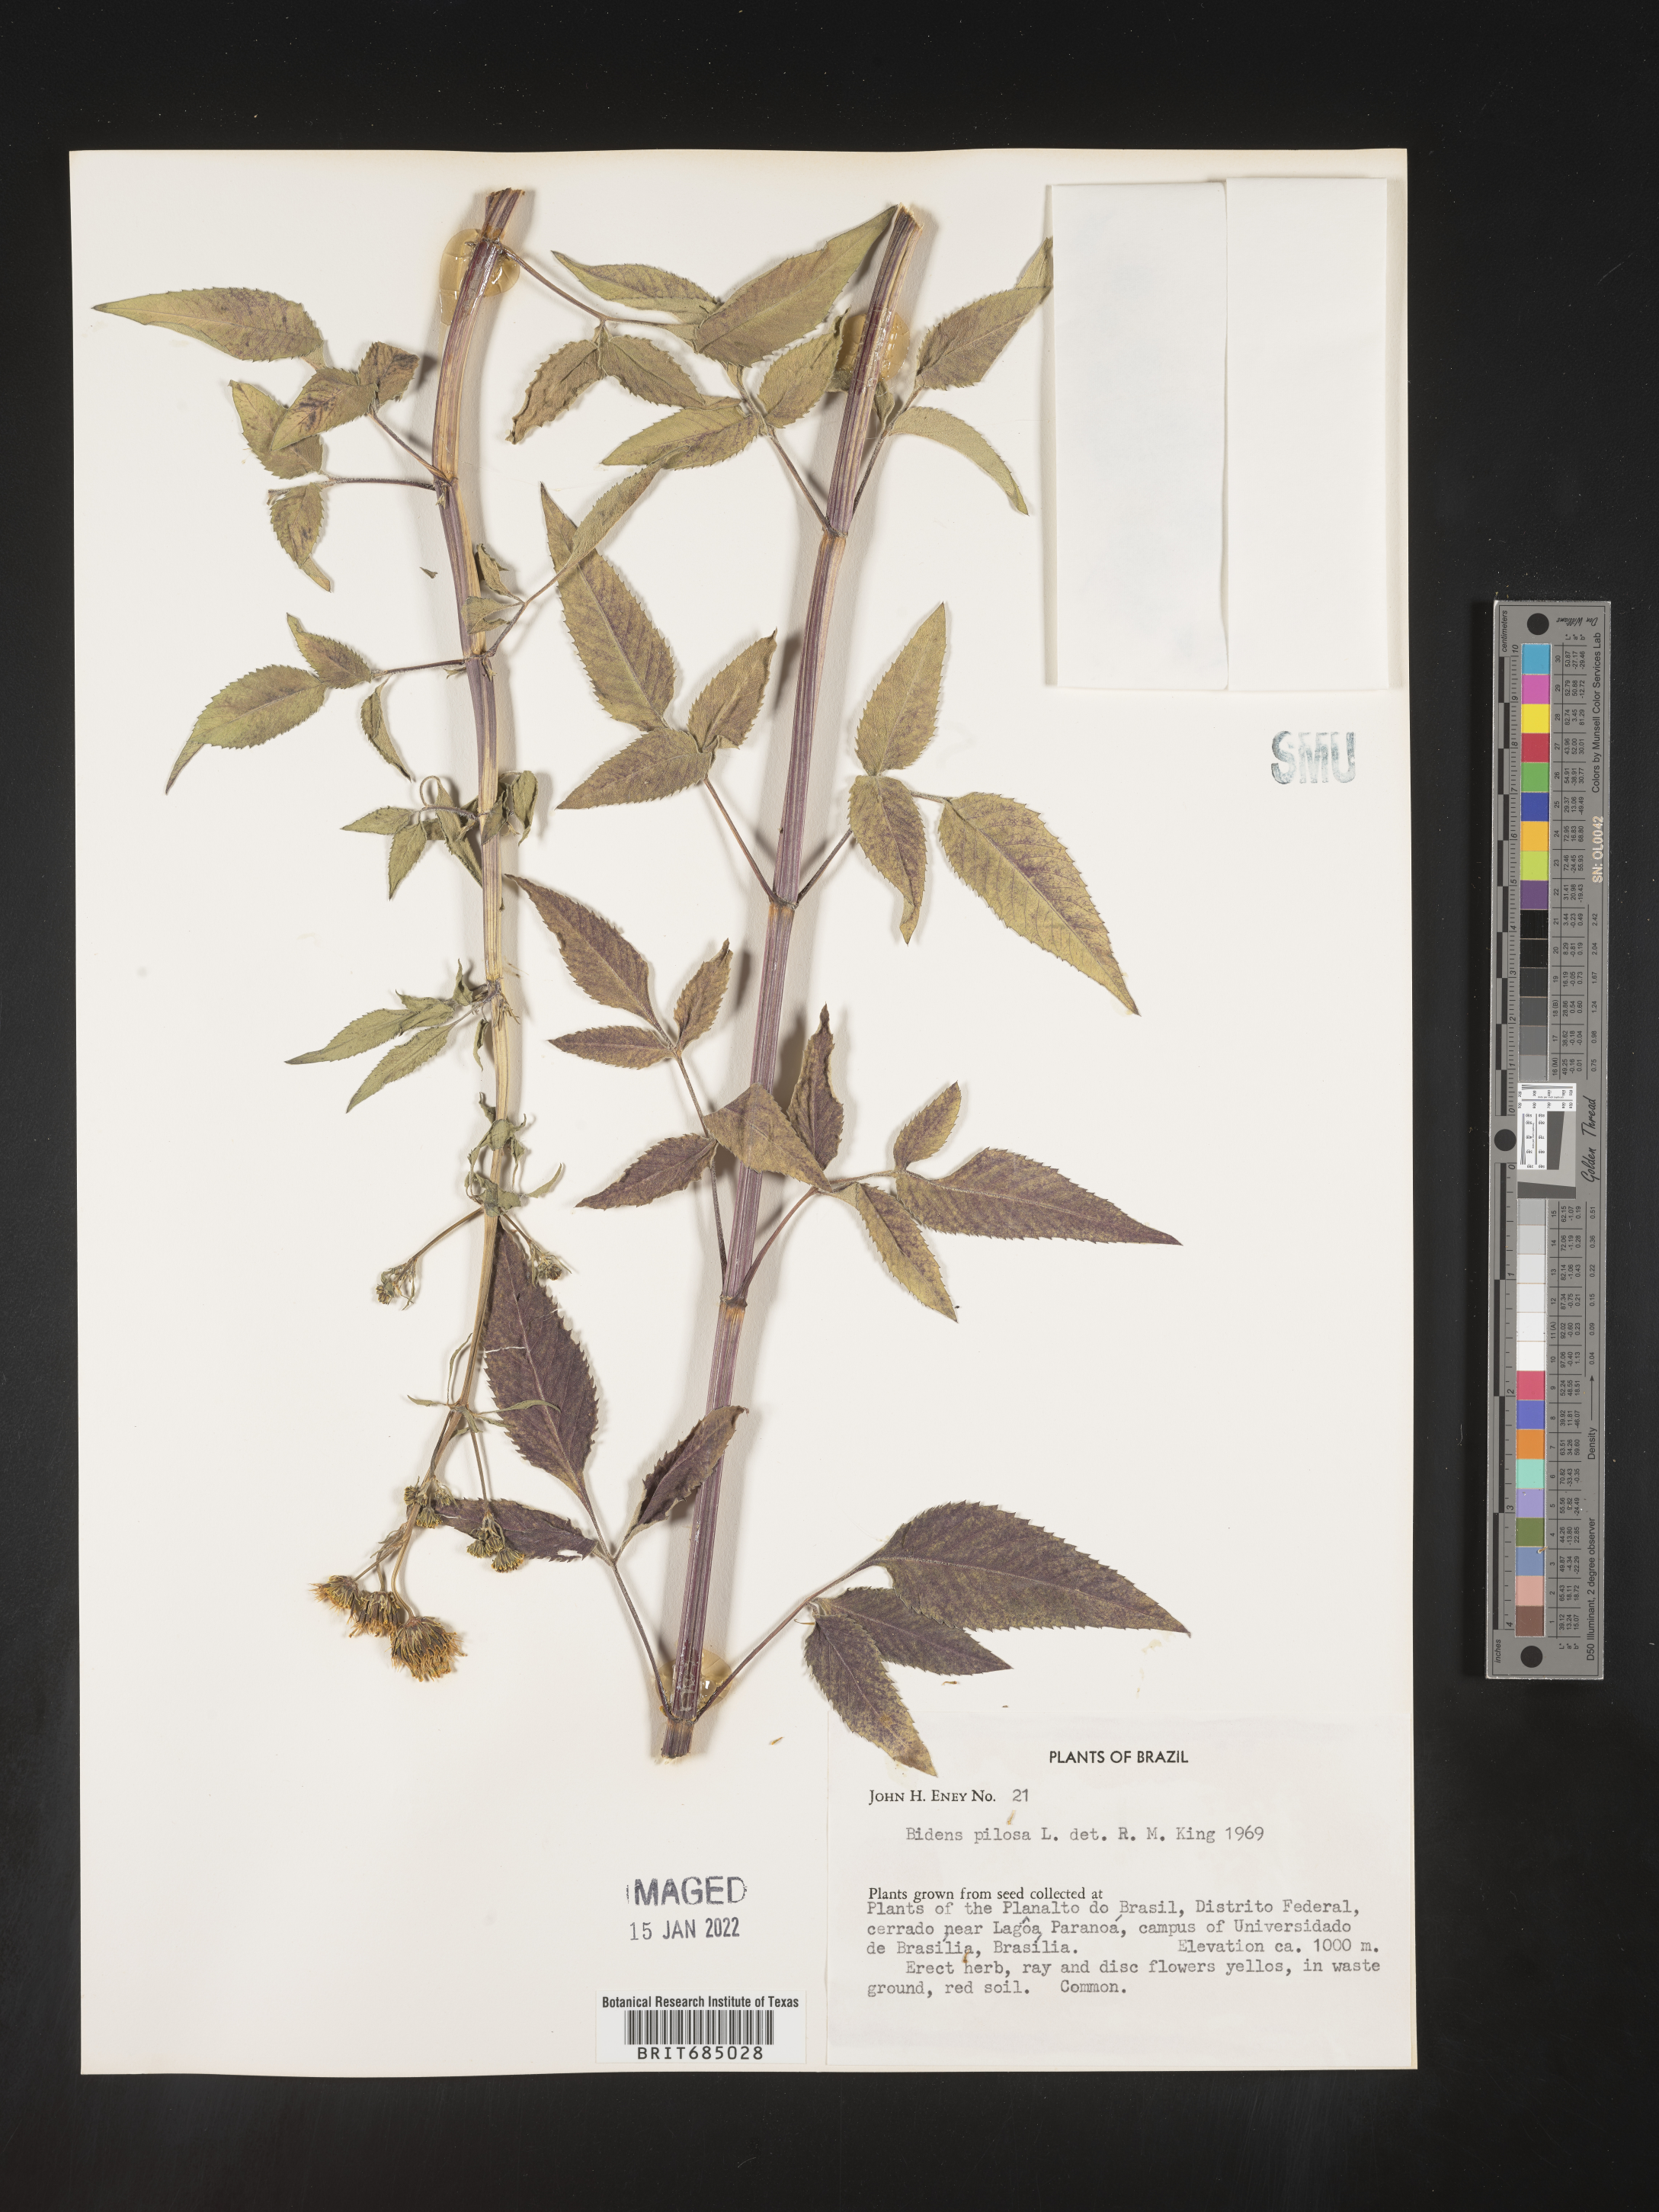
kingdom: Plantae
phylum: Tracheophyta
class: Magnoliopsida
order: Asterales
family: Asteraceae
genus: Bidens
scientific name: Bidens
